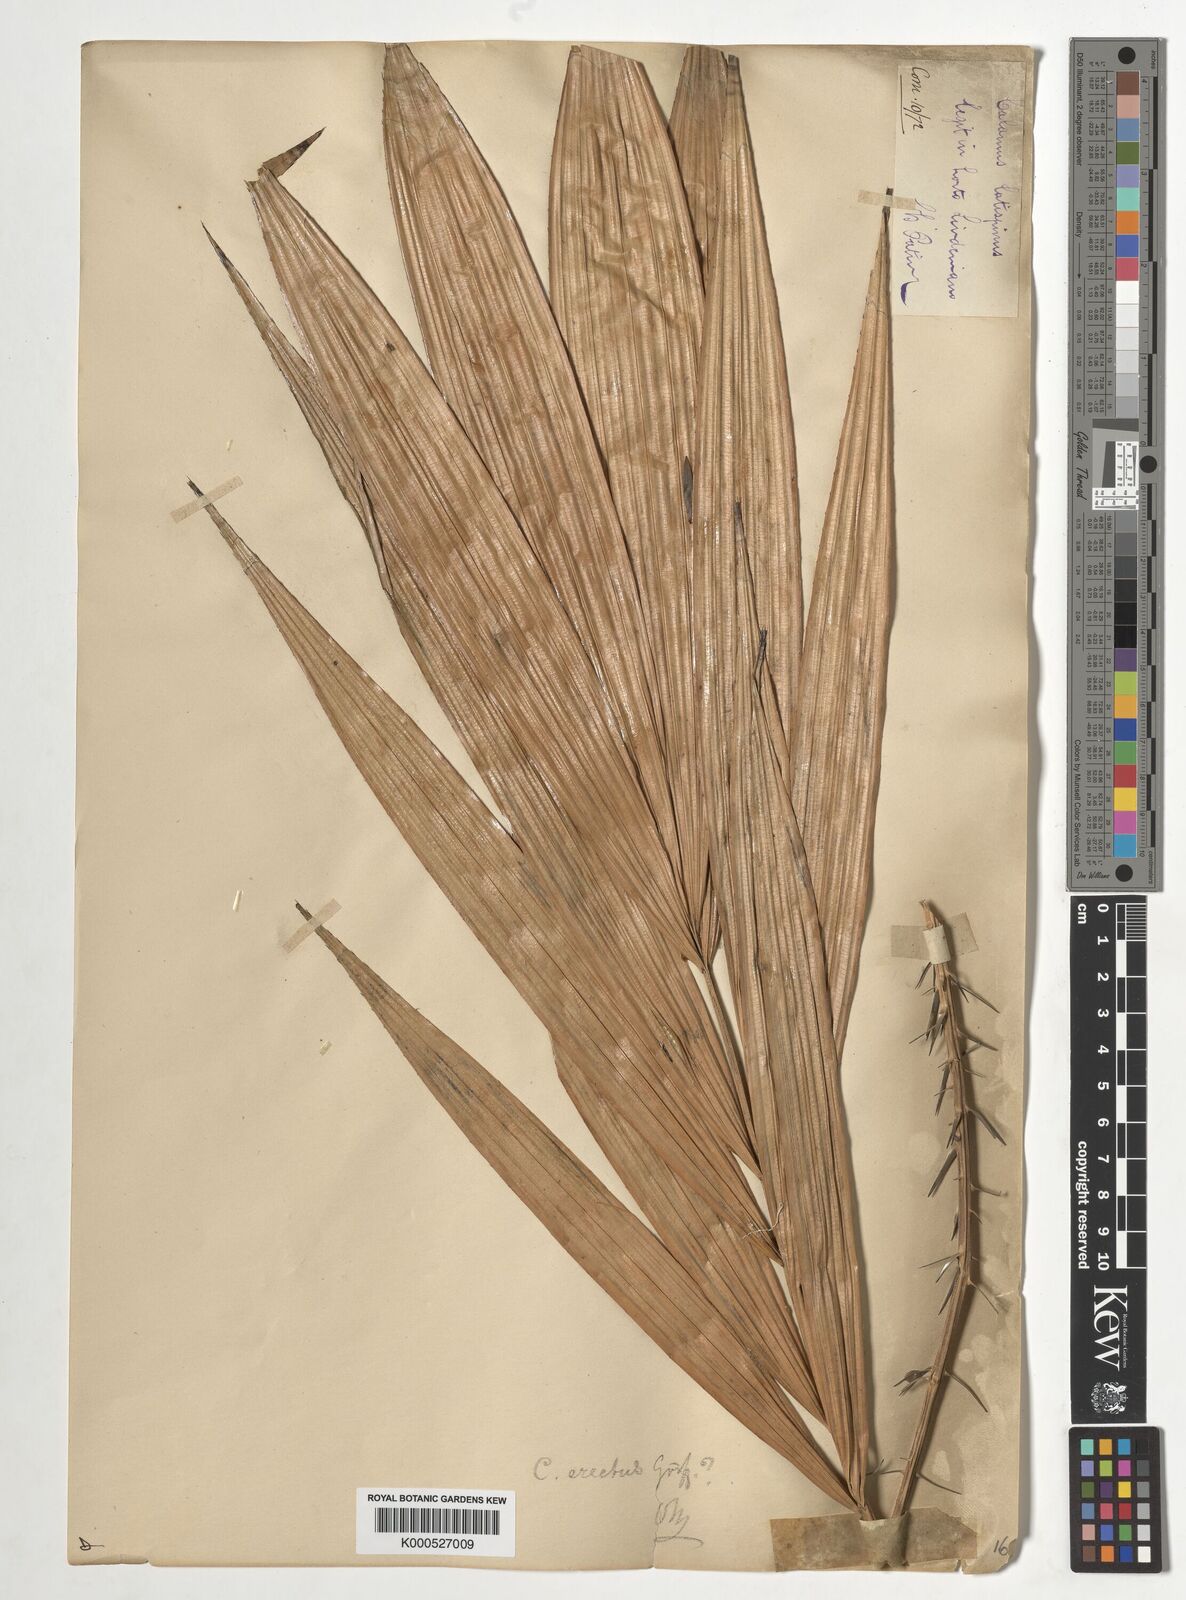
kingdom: Plantae
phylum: Tracheophyta
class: Liliopsida
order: Arecales
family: Arecaceae
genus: Calamus
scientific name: Calamus erectus
